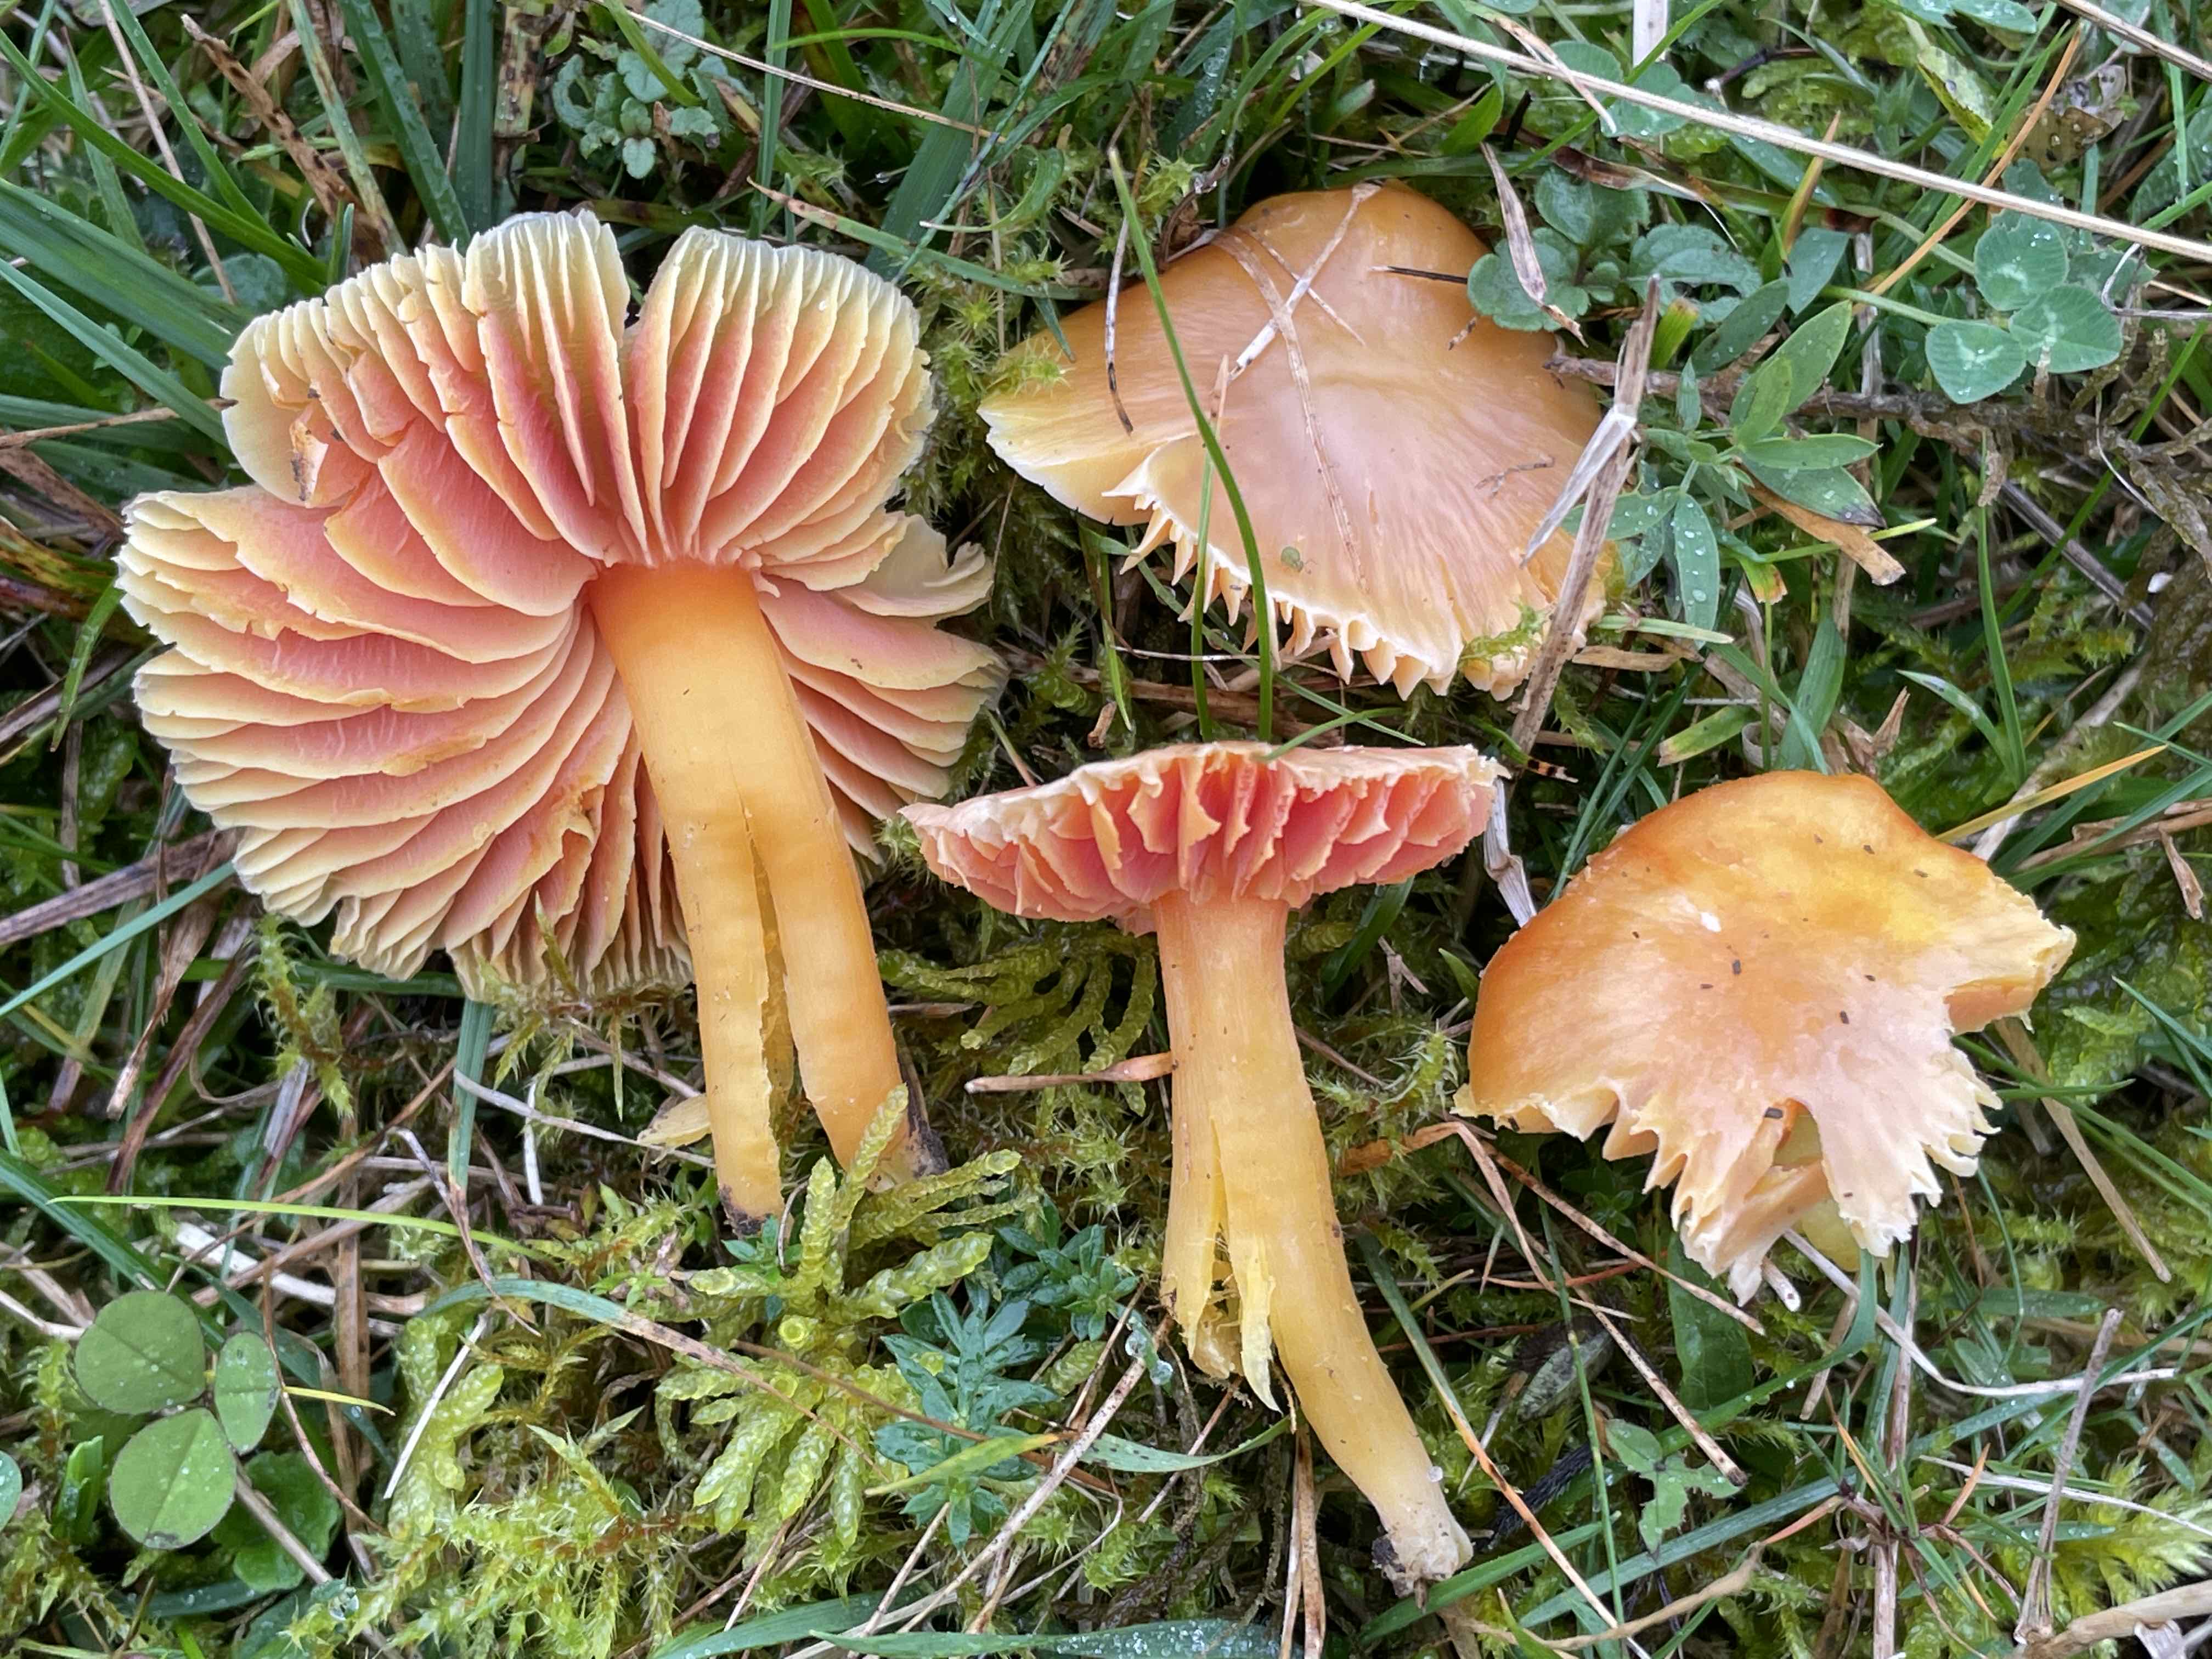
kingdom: Fungi
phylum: Basidiomycota
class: Agaricomycetes
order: Agaricales
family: Hygrophoraceae
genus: Hygrocybe
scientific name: Hygrocybe reidii
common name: honning-vokshat
